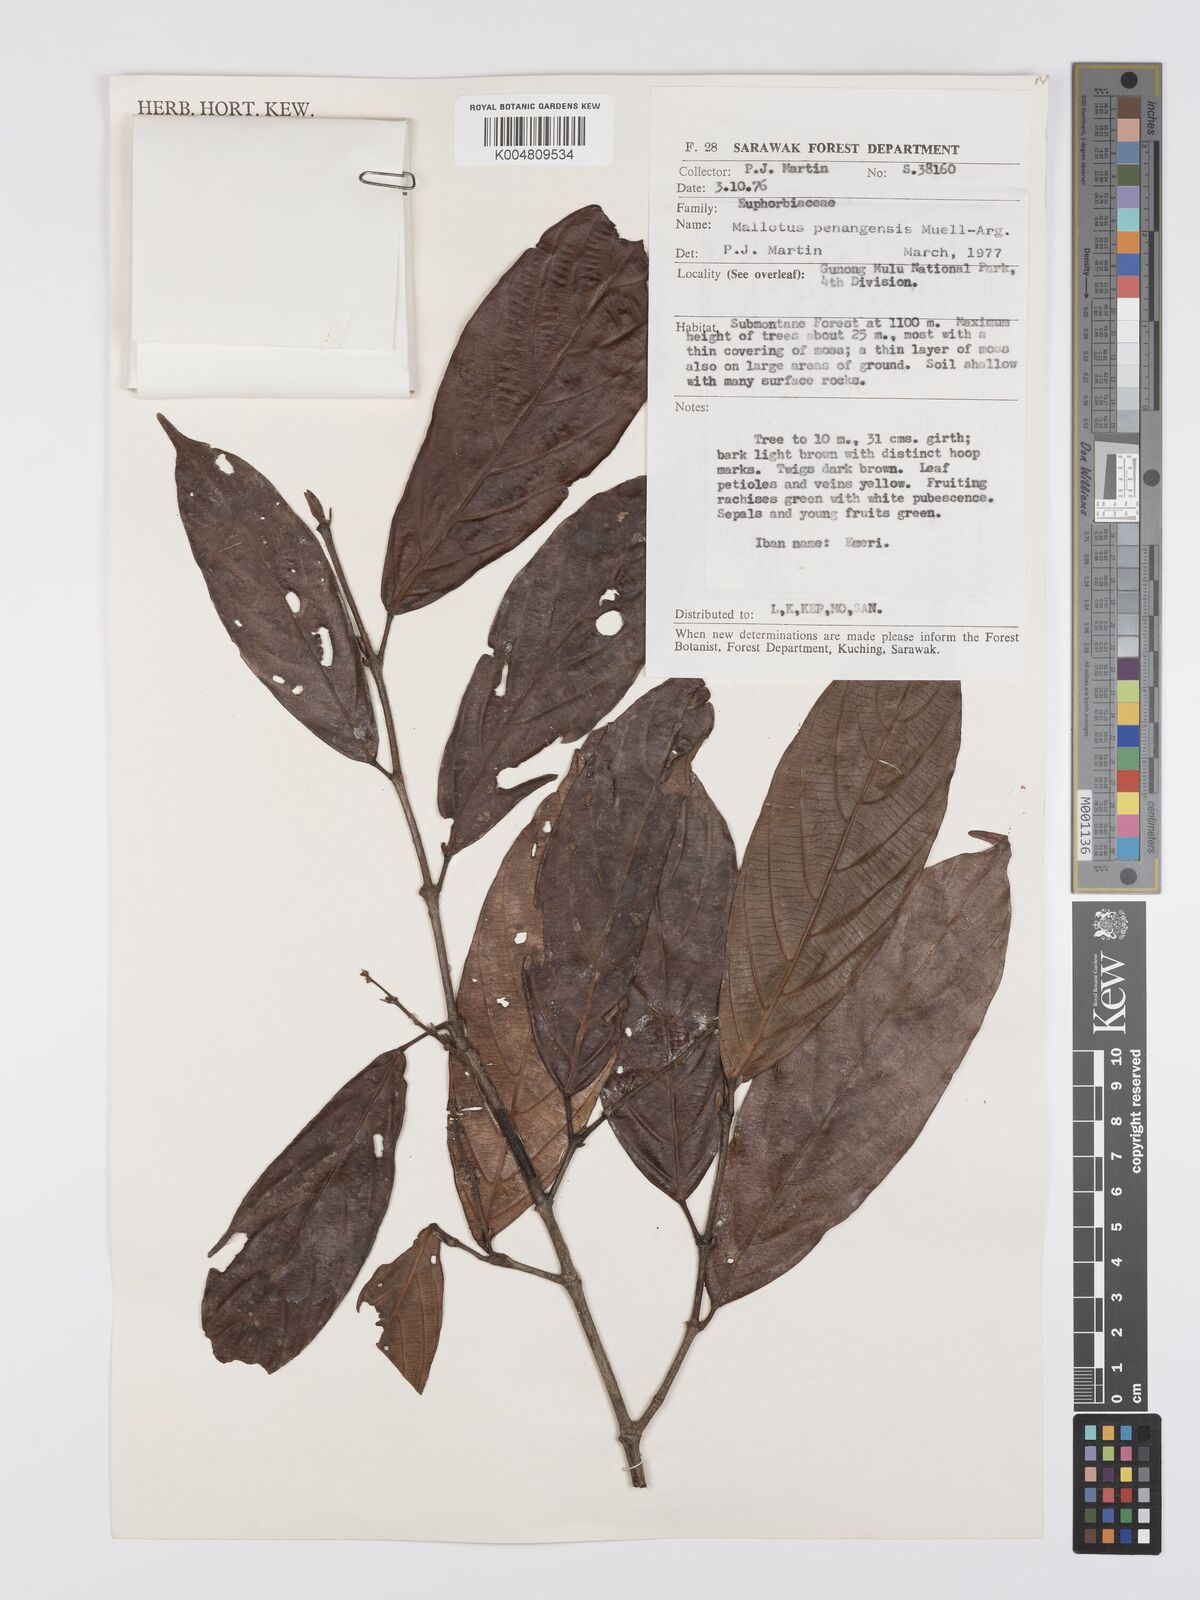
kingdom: Plantae
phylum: Tracheophyta
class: Magnoliopsida
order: Malpighiales
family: Euphorbiaceae
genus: Hancea
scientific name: Hancea penangensis
